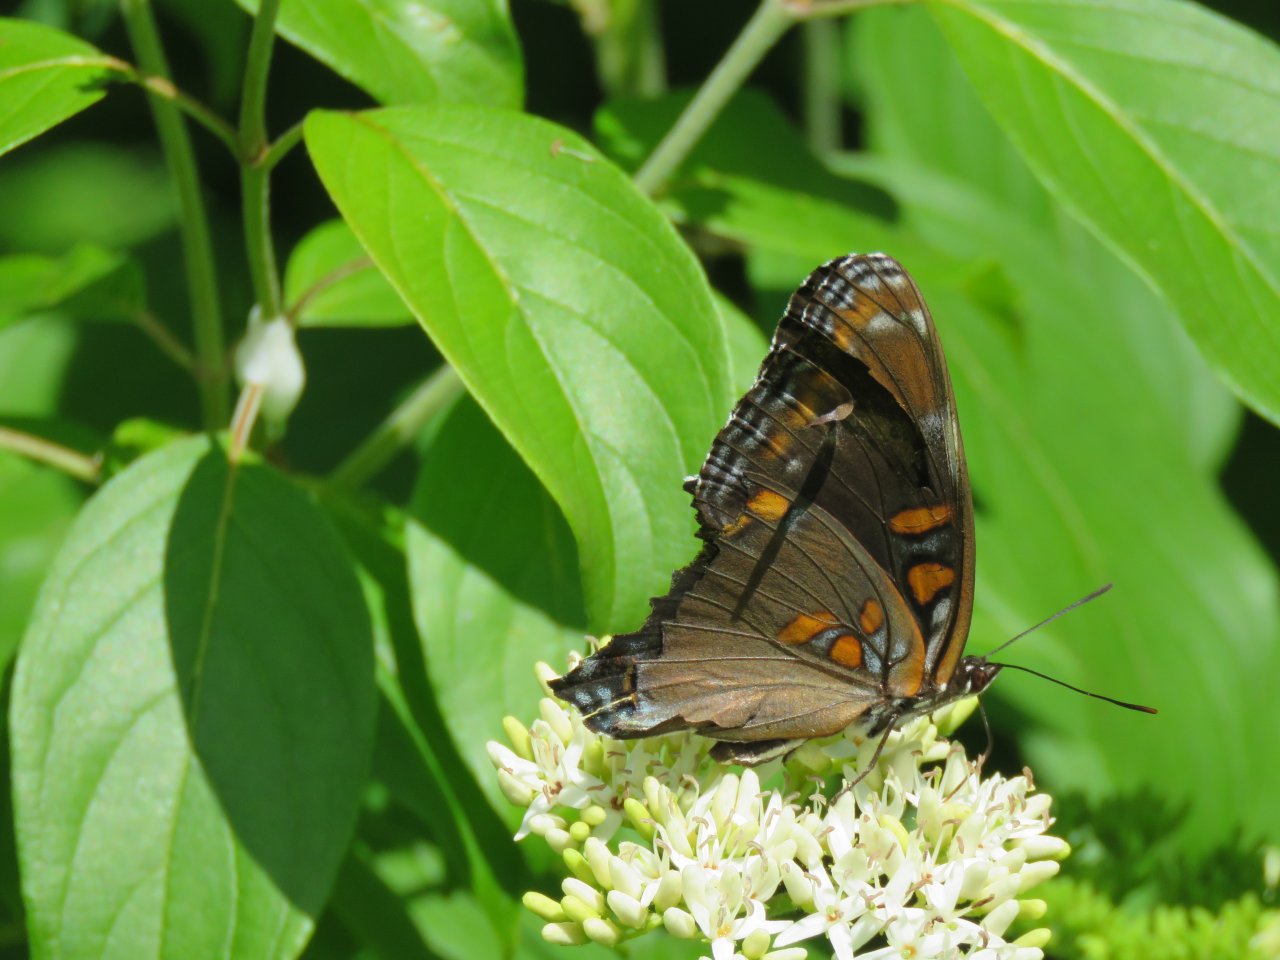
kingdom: Animalia
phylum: Arthropoda
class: Insecta
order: Lepidoptera
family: Nymphalidae
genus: Limenitis
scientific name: Limenitis
